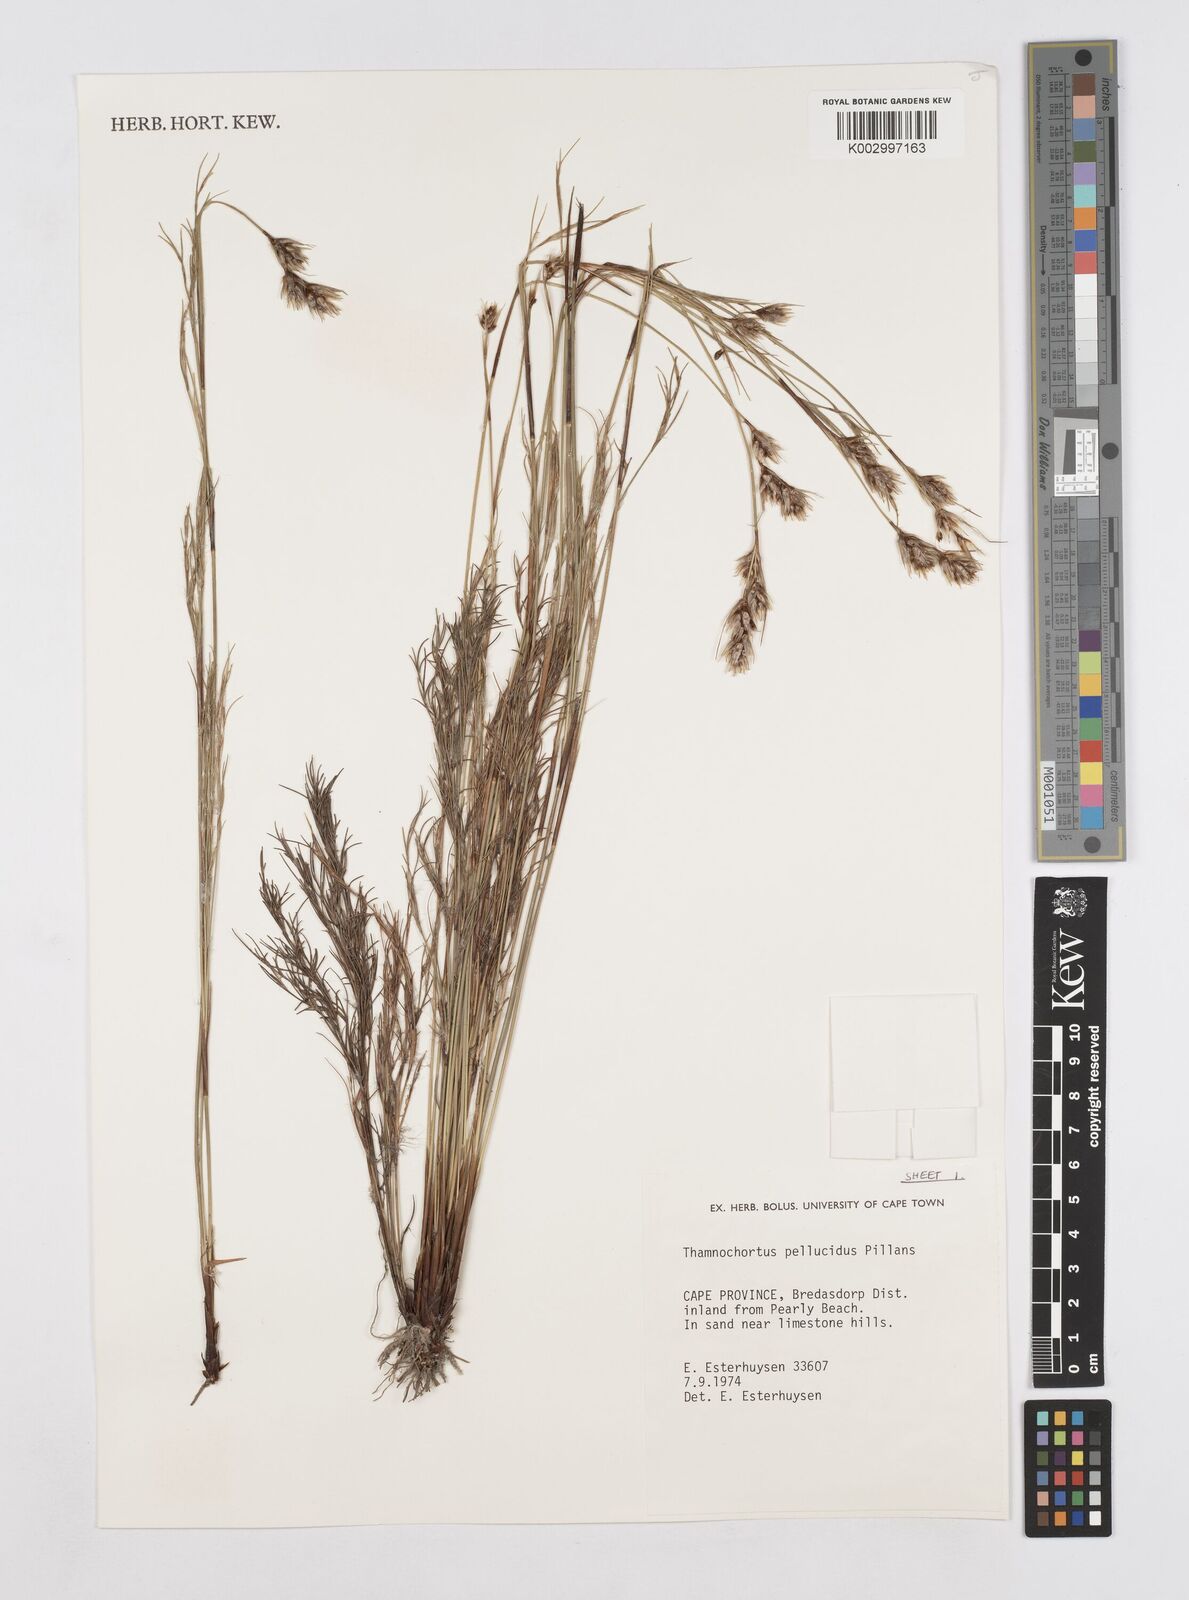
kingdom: Plantae
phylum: Tracheophyta
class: Liliopsida
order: Poales
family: Restionaceae
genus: Thamnochortus
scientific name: Thamnochortus pellucidus
